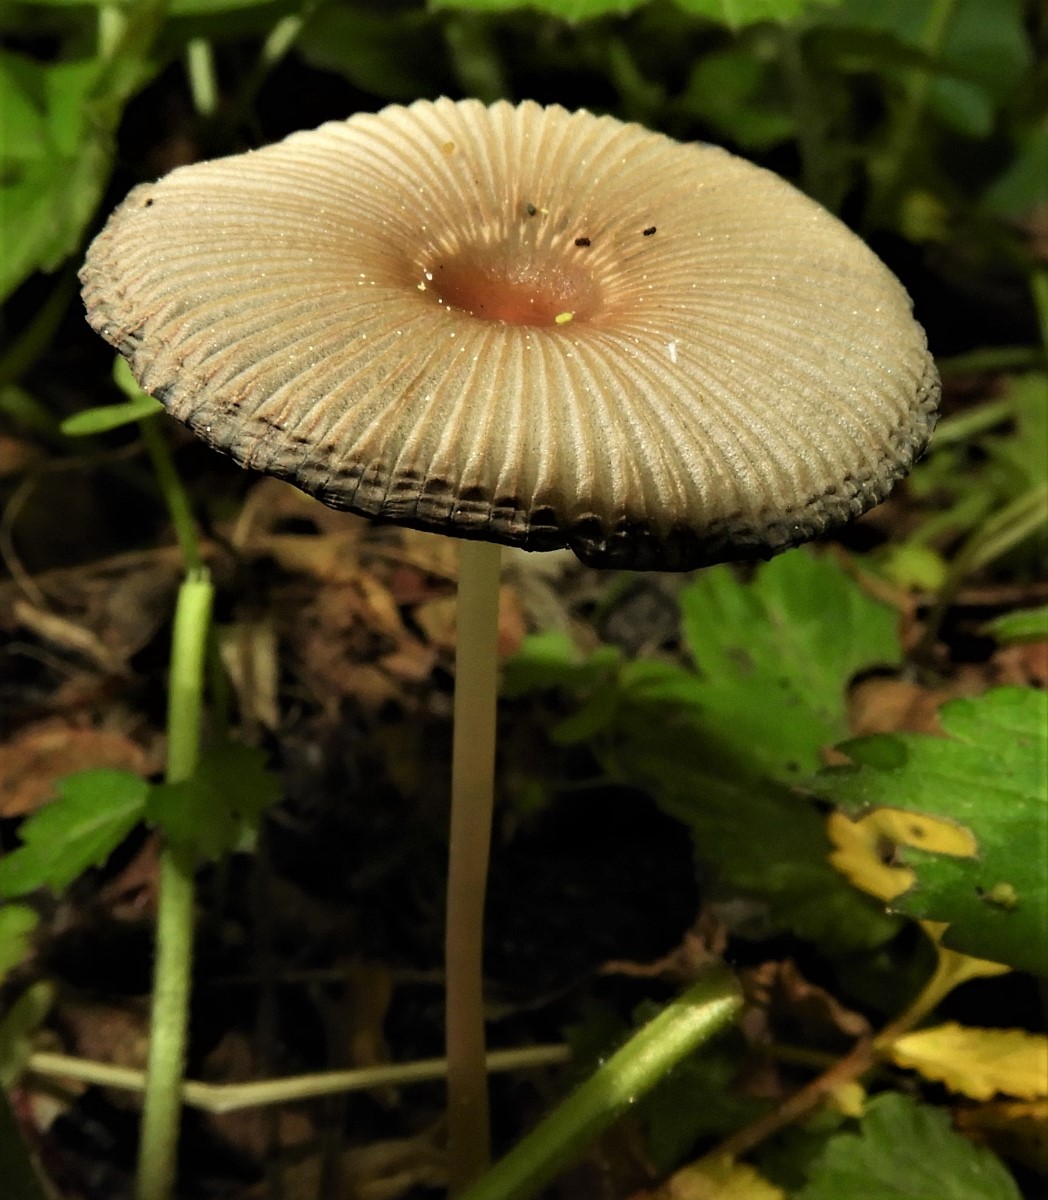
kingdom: Fungi
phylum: Basidiomycota
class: Agaricomycetes
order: Agaricales
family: Psathyrellaceae
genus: Parasola
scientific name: Parasola
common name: hjulhat
